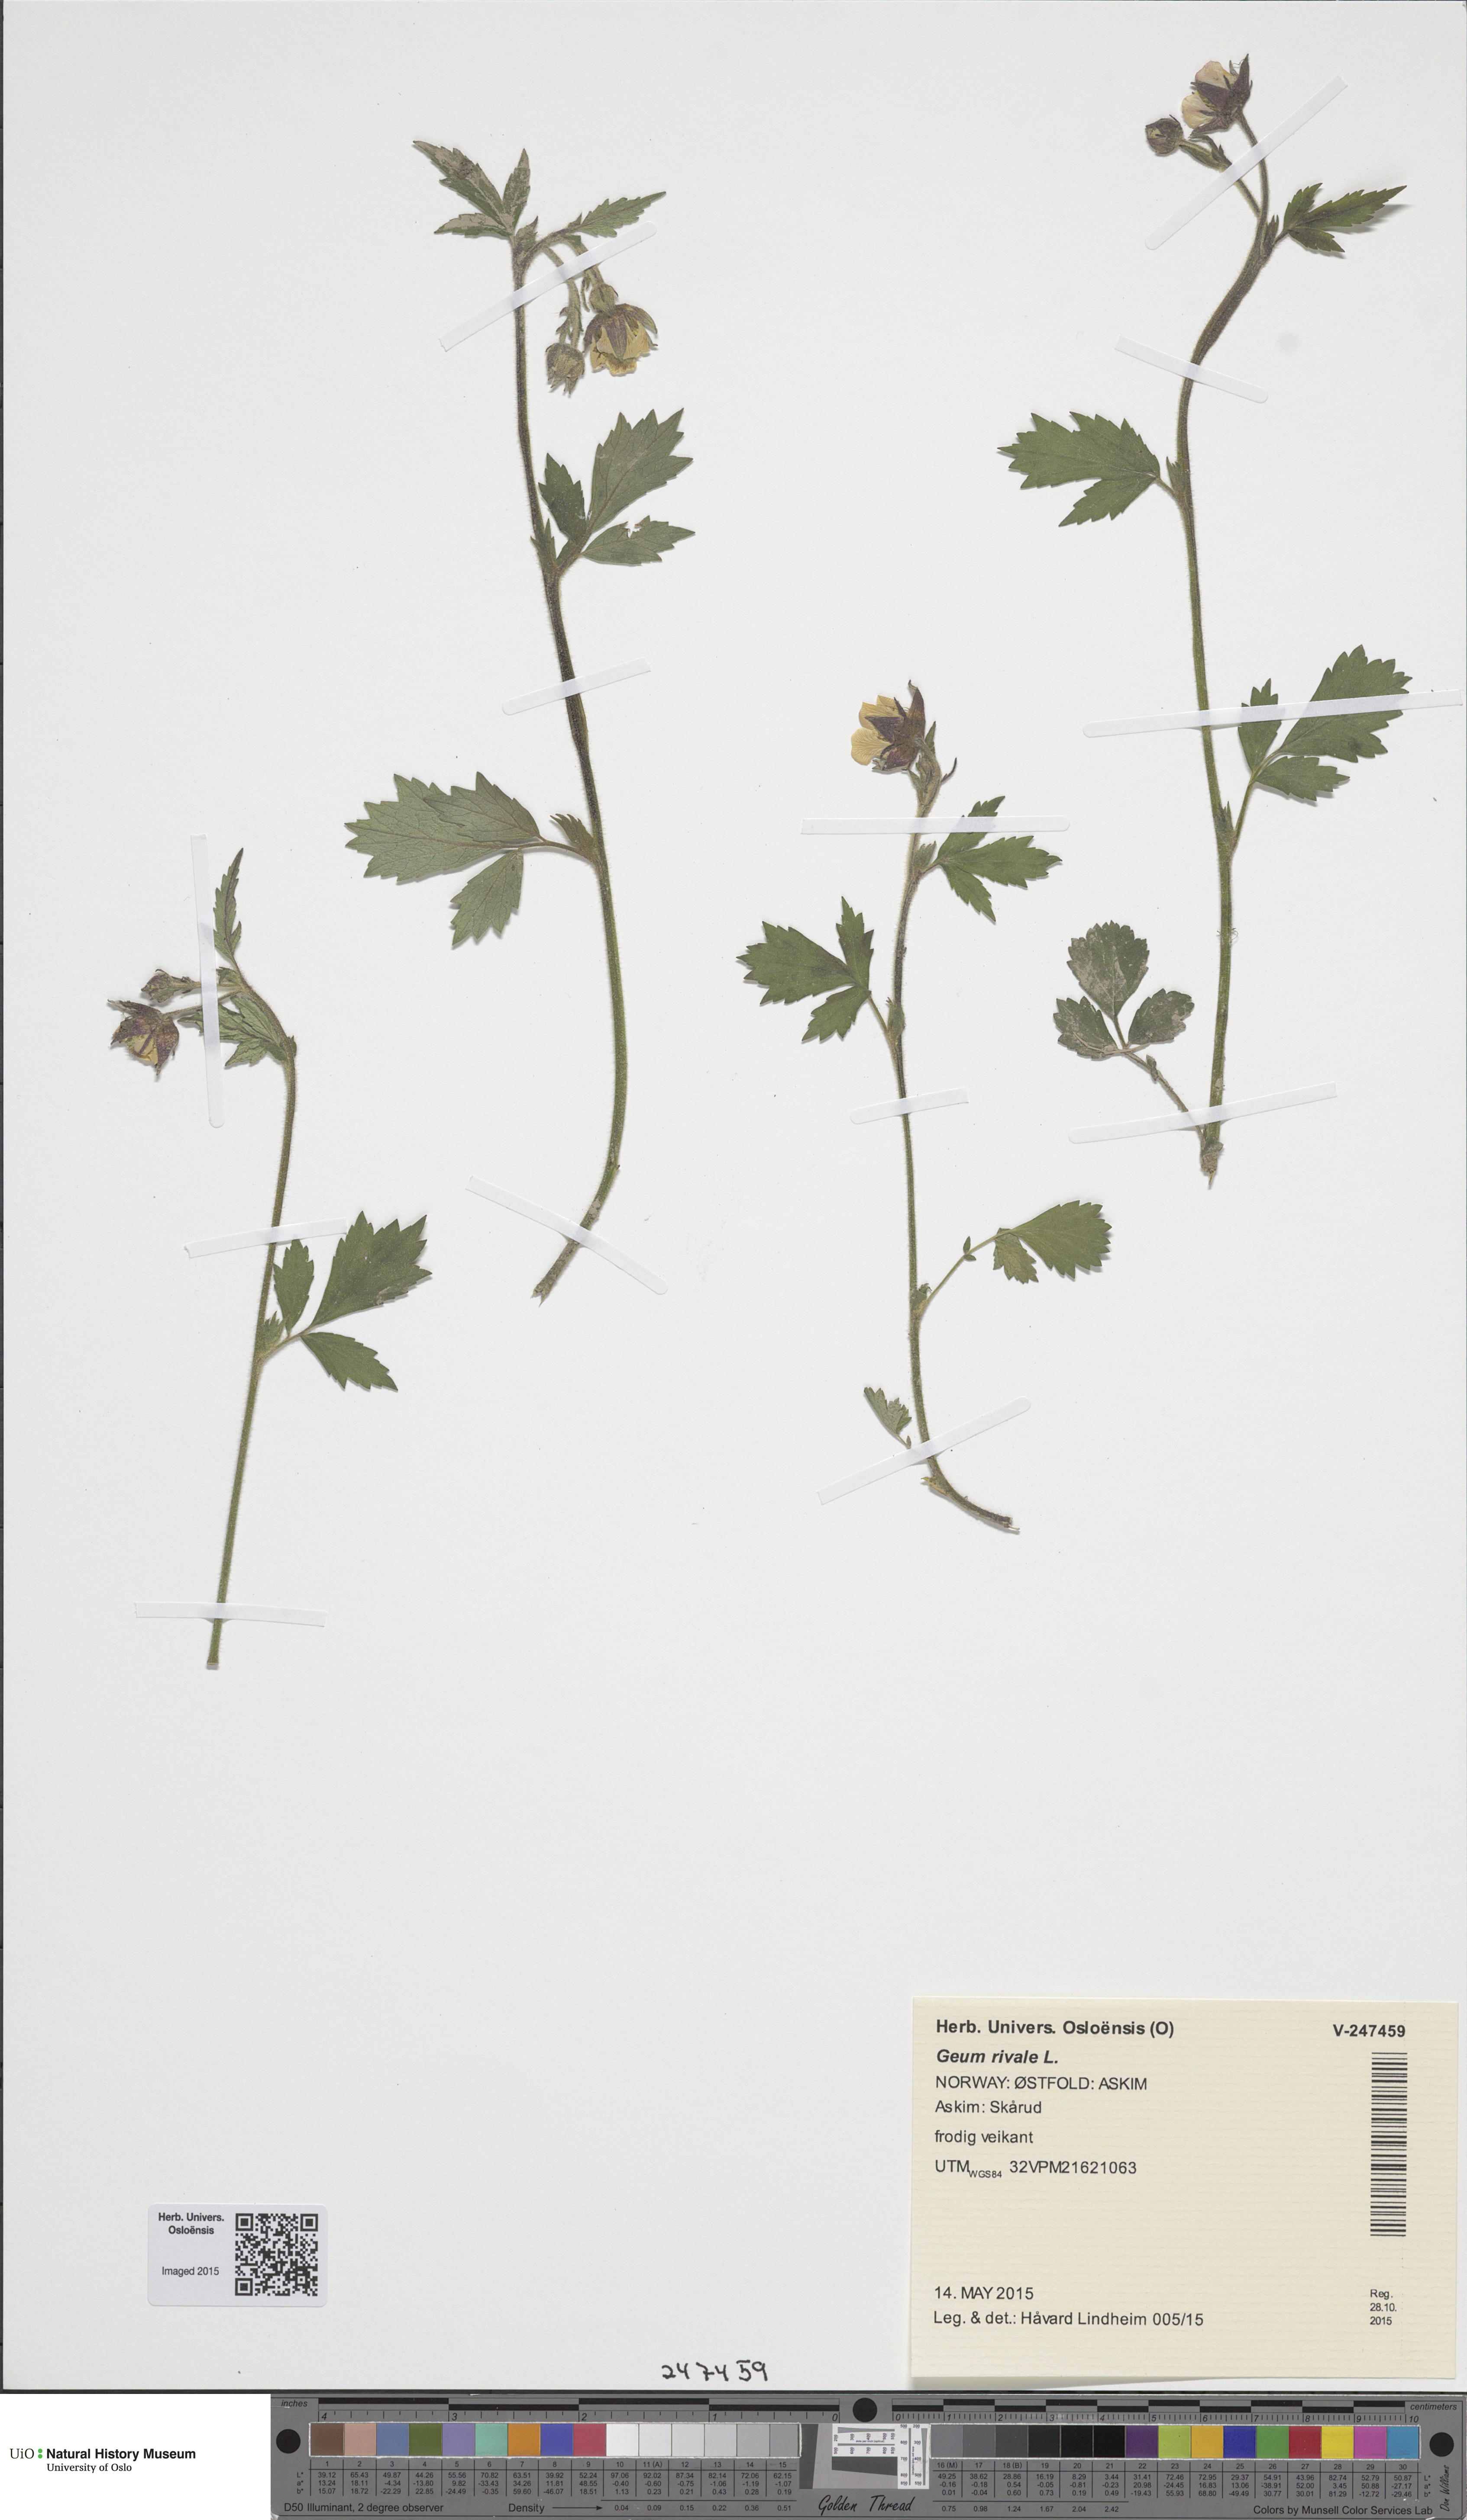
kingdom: Plantae
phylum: Tracheophyta
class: Magnoliopsida
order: Rosales
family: Rosaceae
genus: Geum
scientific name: Geum rivale
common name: Water avens
